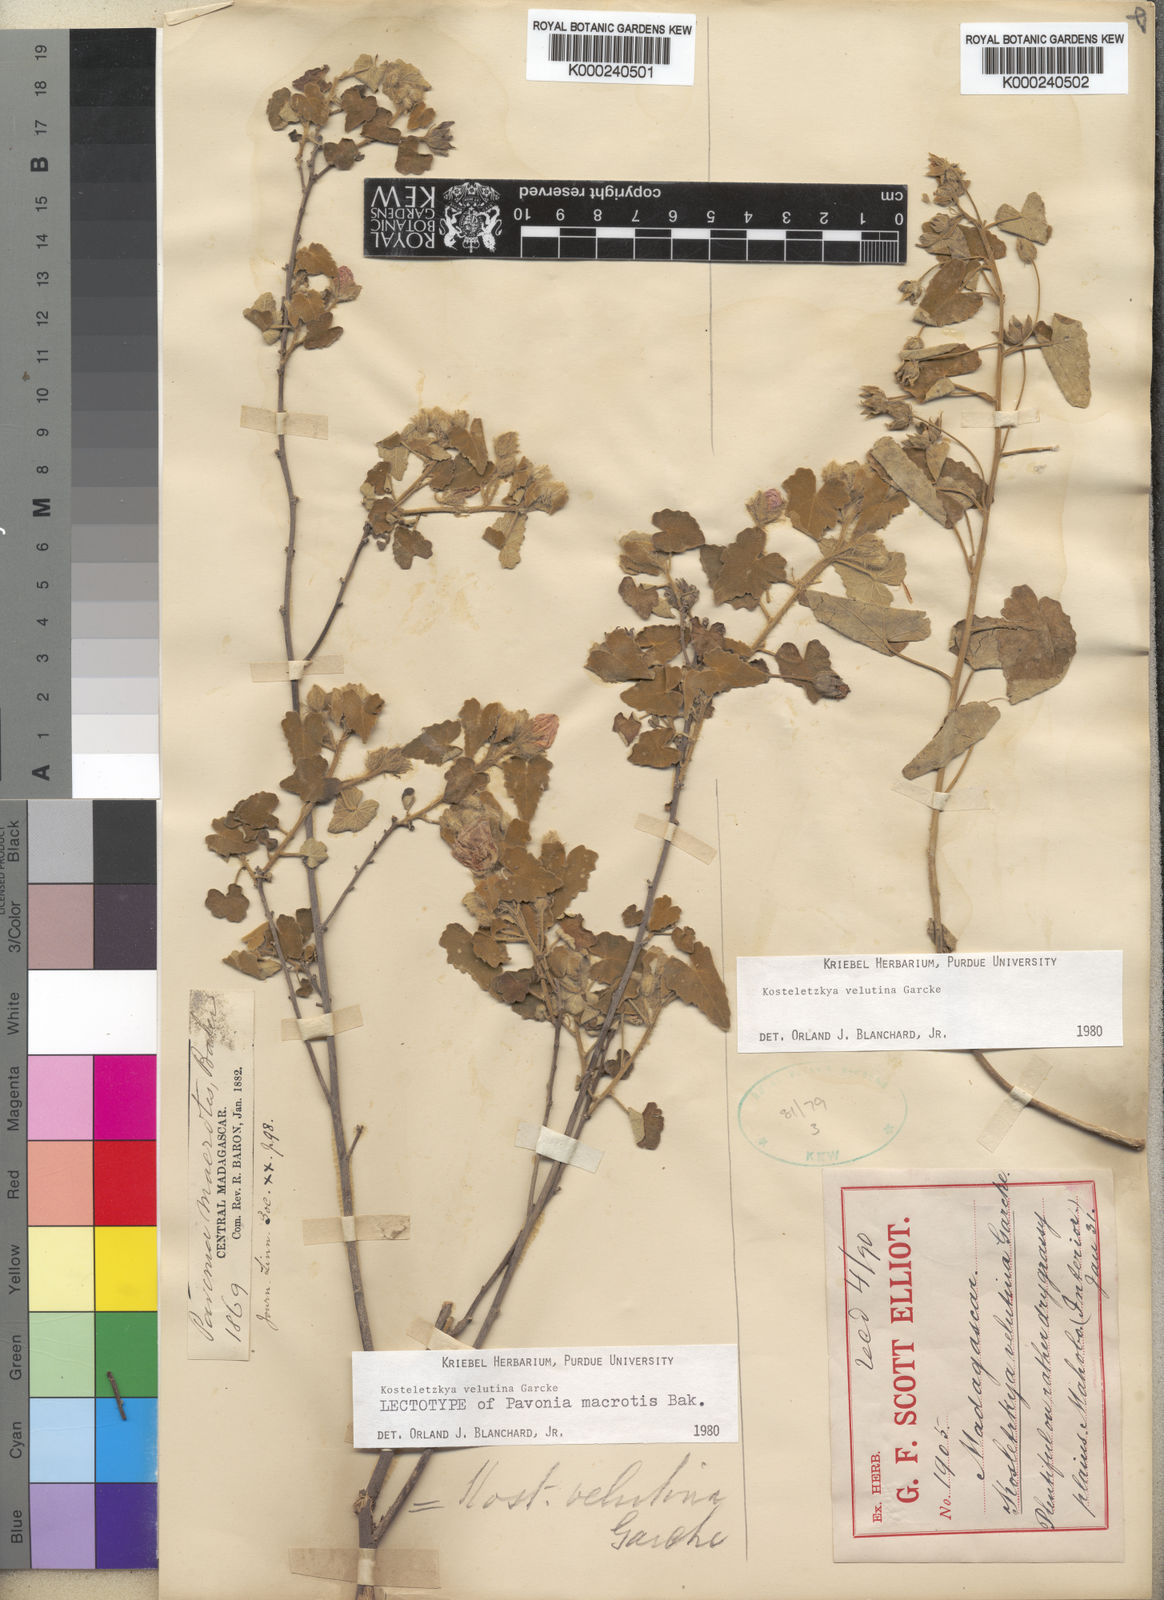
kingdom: Plantae
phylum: Tracheophyta
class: Magnoliopsida
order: Malvales
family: Malvaceae
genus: Perrierophytum
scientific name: Perrierophytum velutinum
